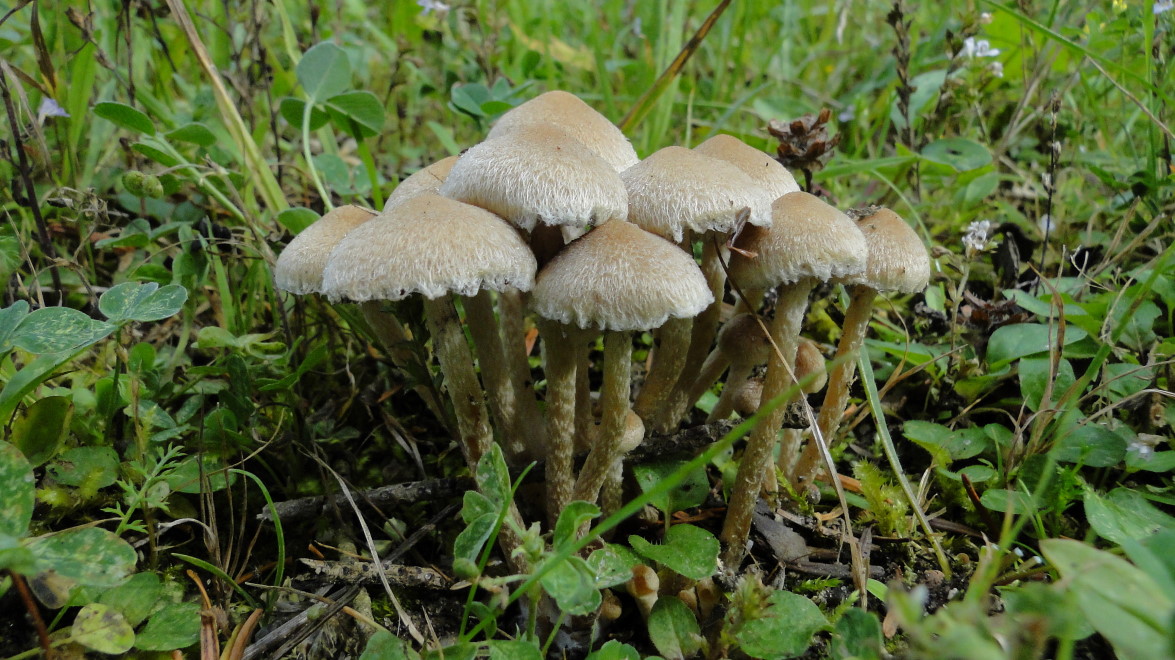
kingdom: Fungi
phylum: Basidiomycota
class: Agaricomycetes
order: Agaricales
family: Psathyrellaceae
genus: Lacrymaria
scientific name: Lacrymaria lacrymabunda
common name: grædende mørkhat
